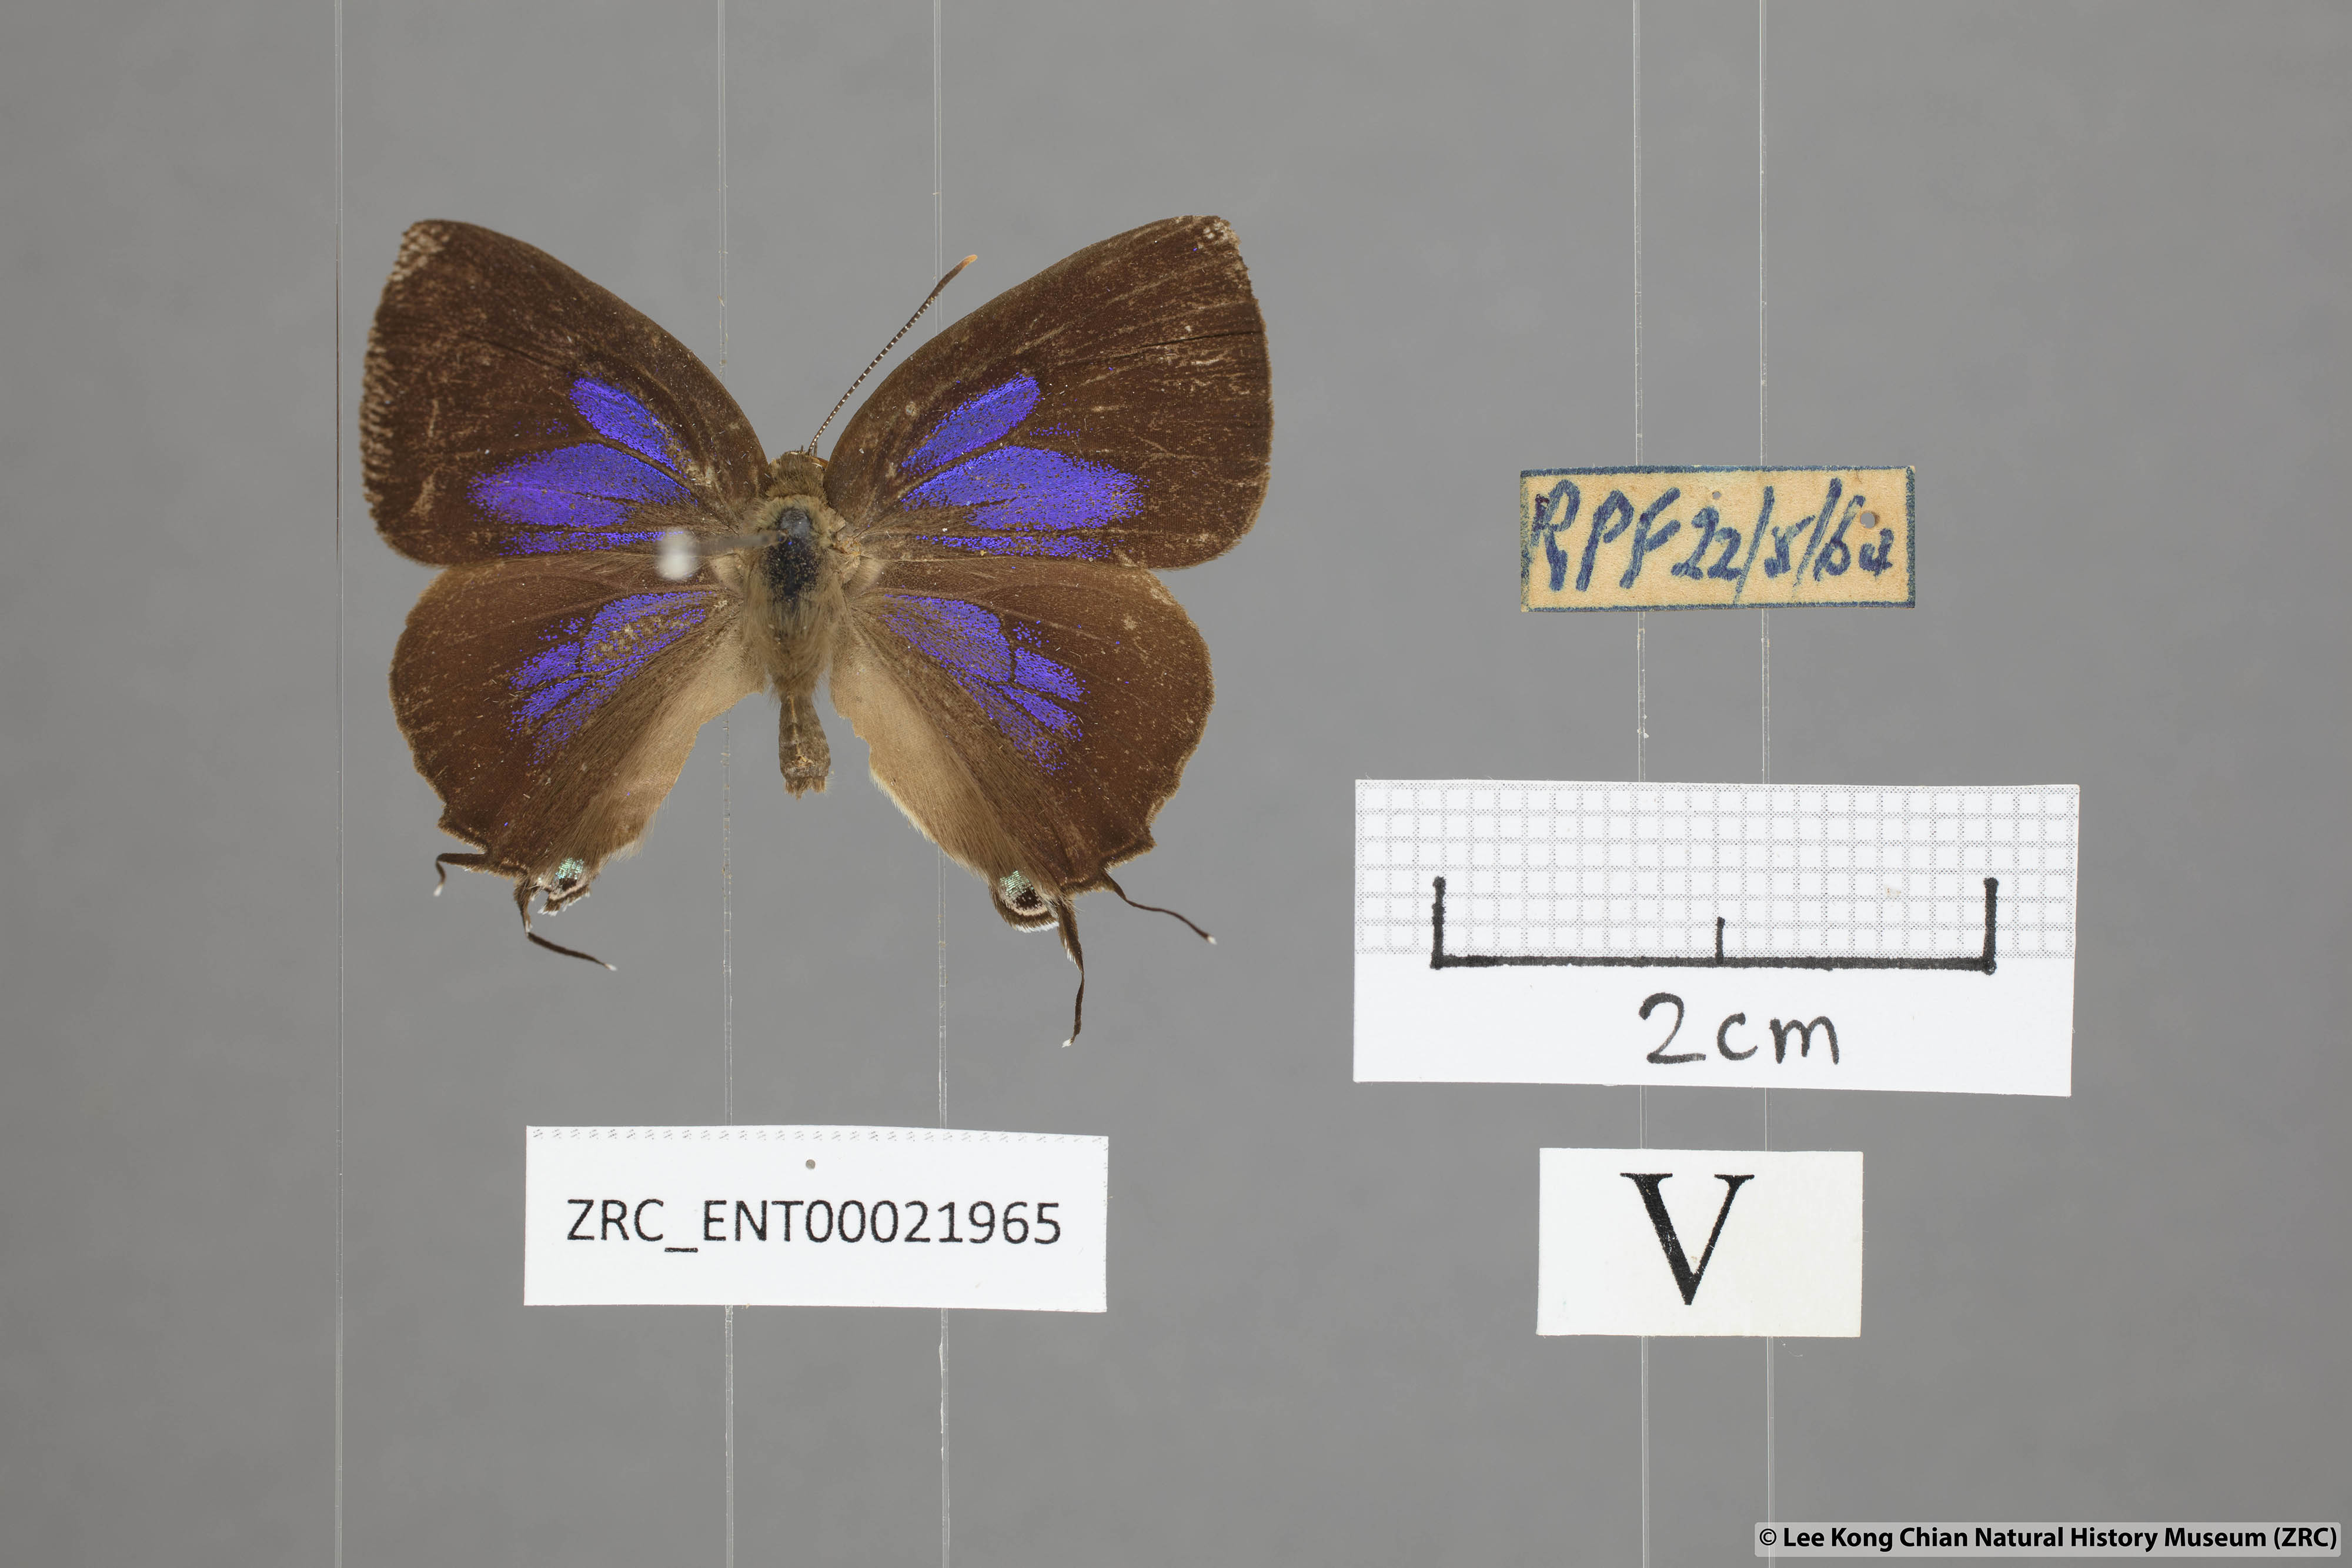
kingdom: Animalia
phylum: Arthropoda
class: Insecta
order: Lepidoptera
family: Lycaenidae
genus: Remelana
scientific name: Remelana jangala
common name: Chocolate royal
